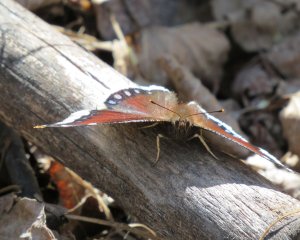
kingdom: Animalia
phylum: Arthropoda
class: Insecta
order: Lepidoptera
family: Nymphalidae
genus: Nymphalis
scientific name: Nymphalis antiopa
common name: Mourning Cloak
